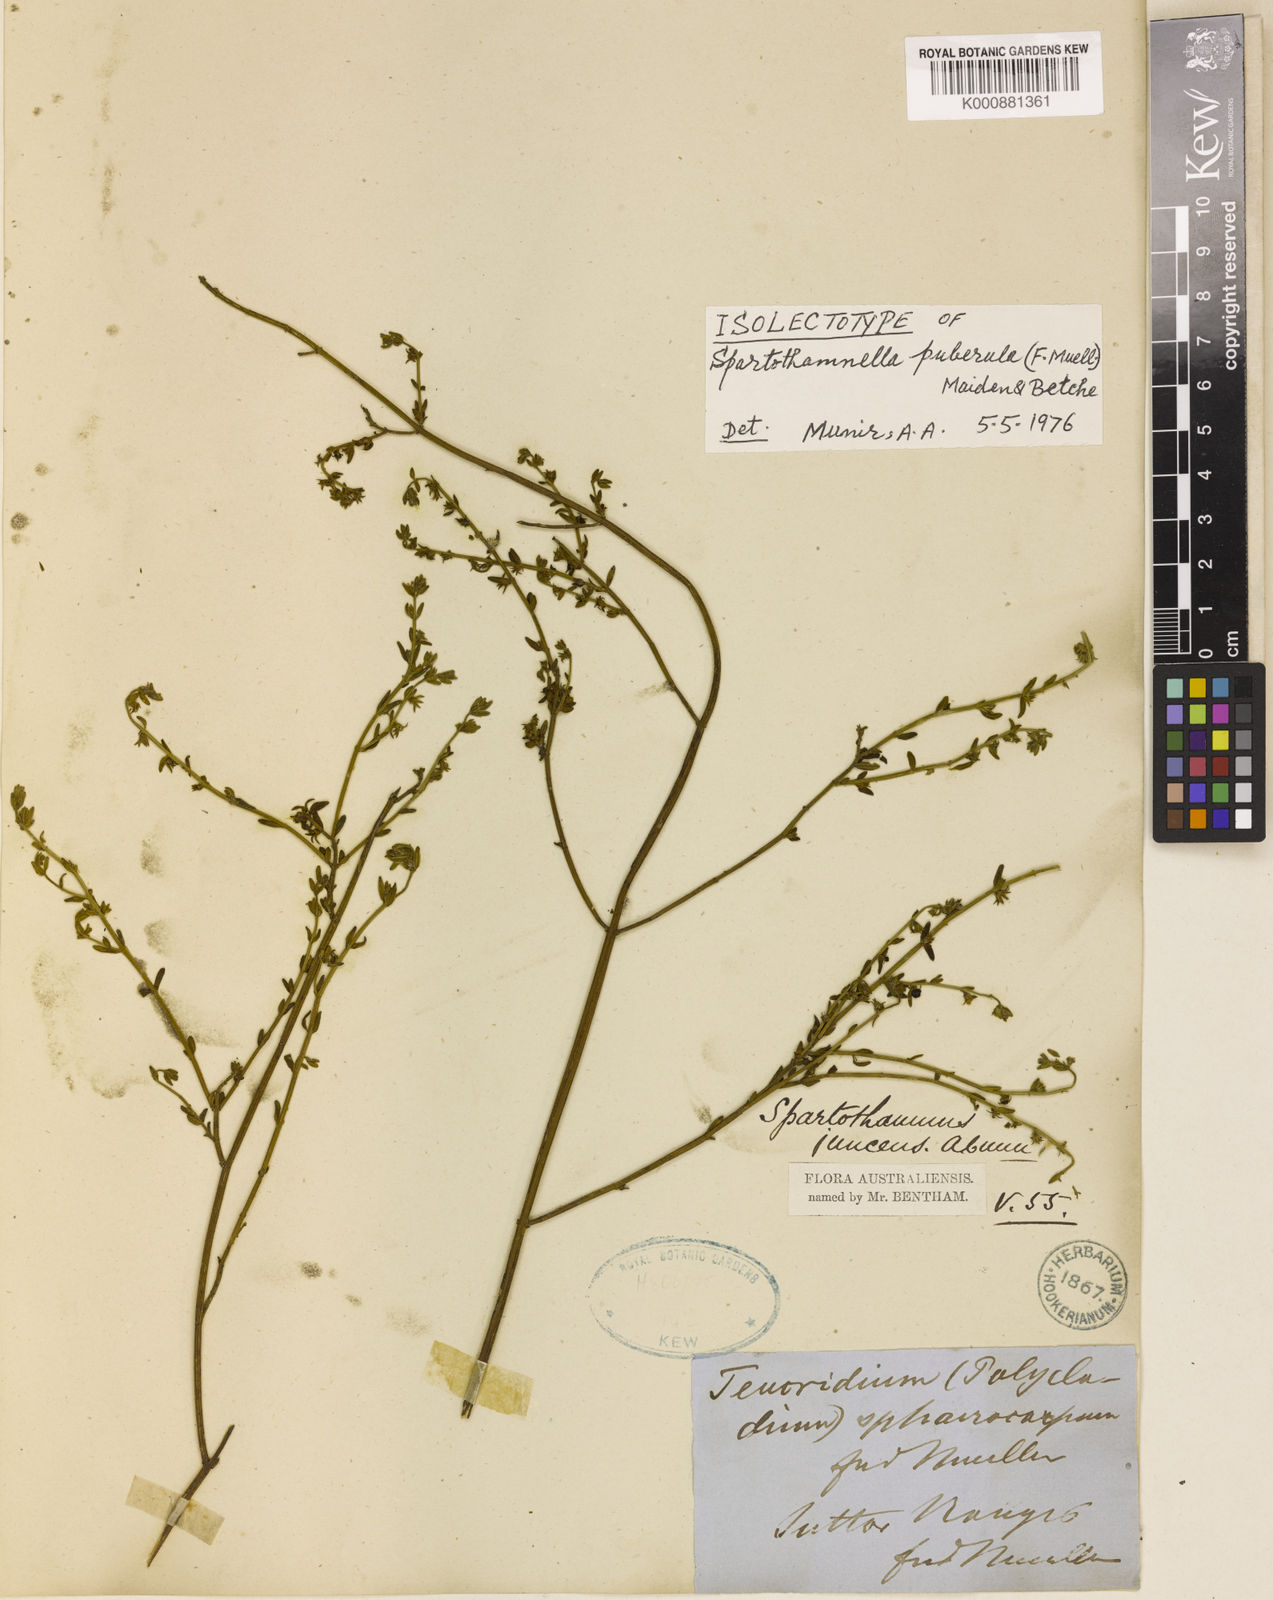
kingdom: Plantae
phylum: Tracheophyta
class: Magnoliopsida
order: Lamiales
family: Lamiaceae
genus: Teucrium
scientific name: Teucrium puberulum
